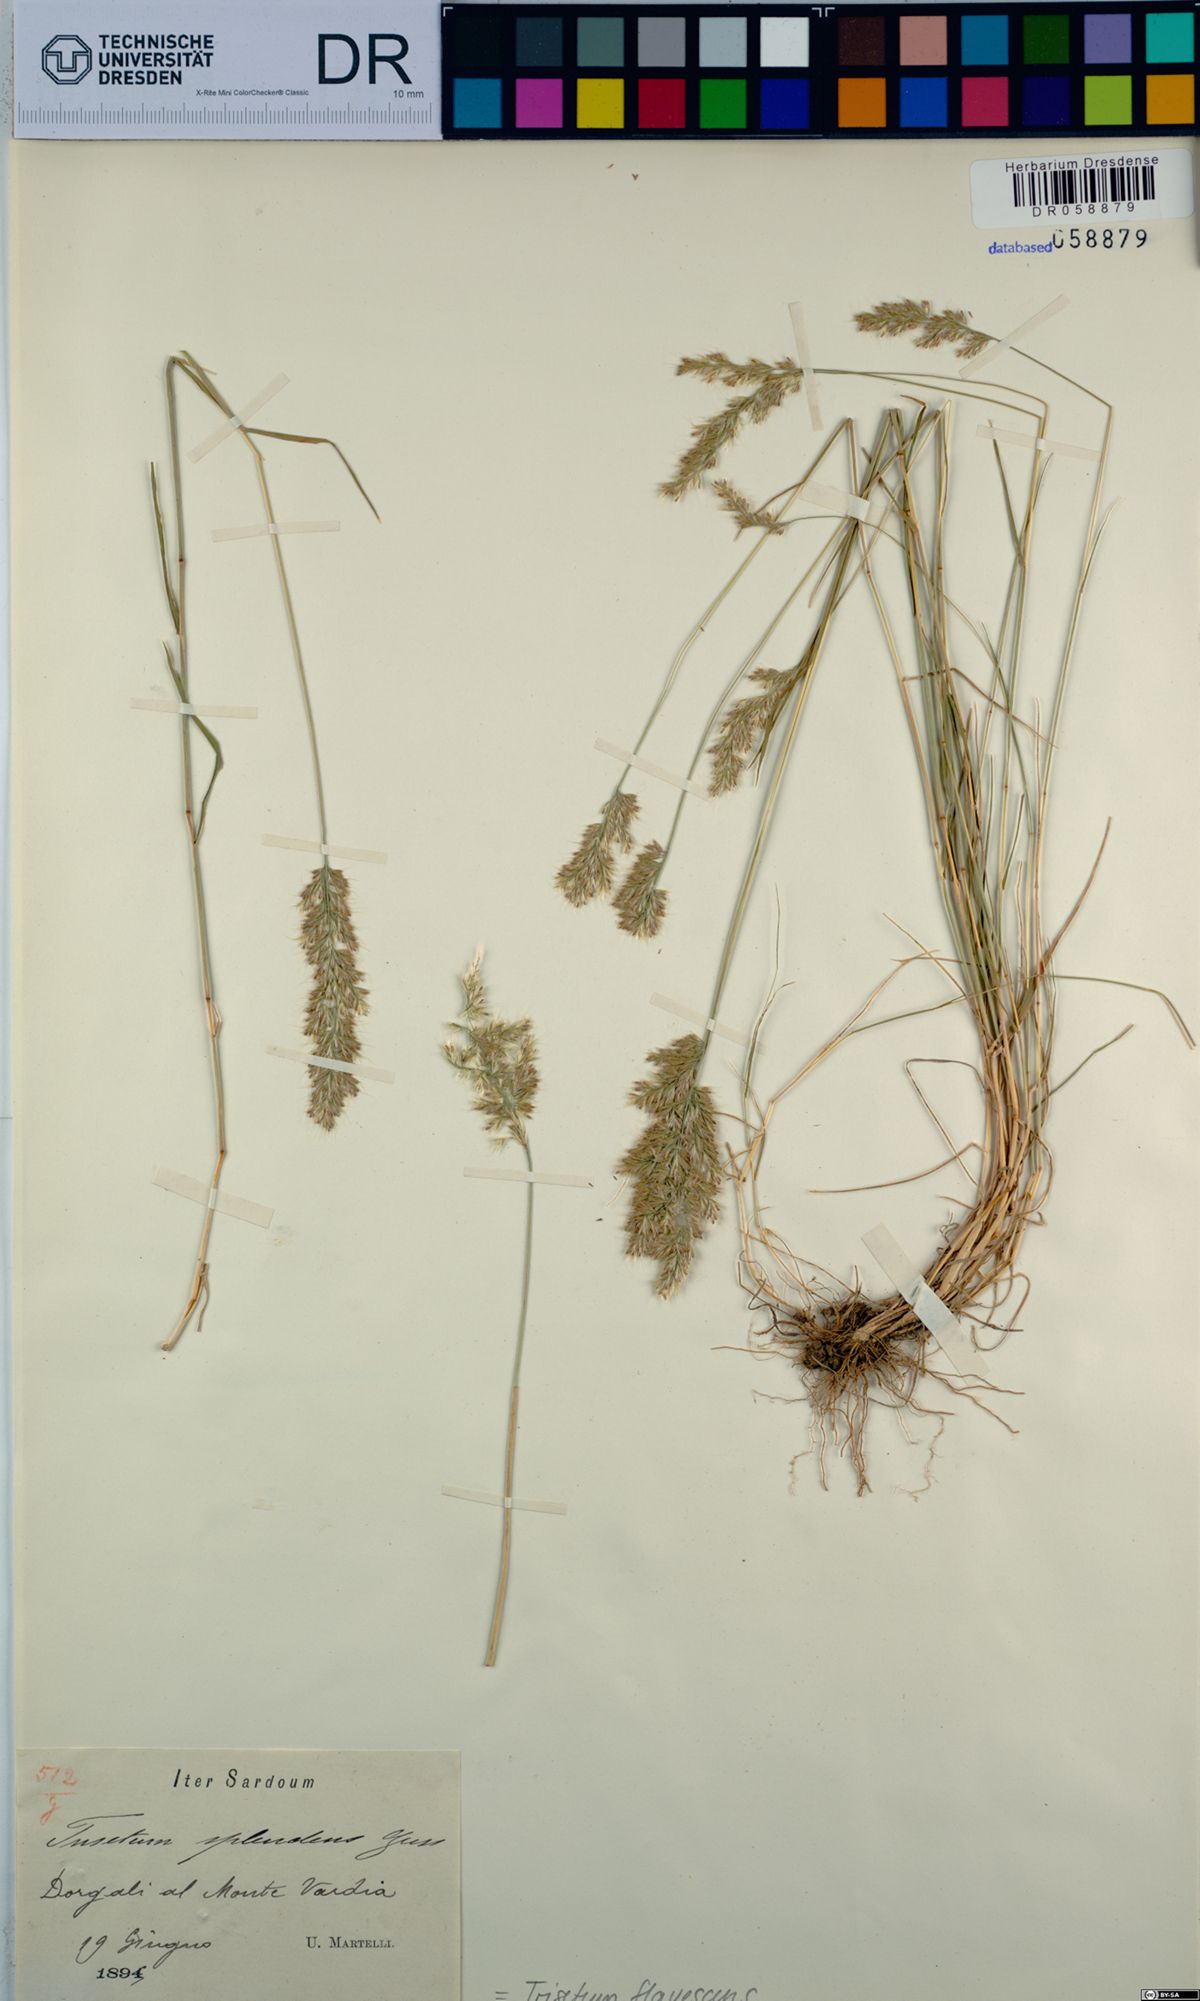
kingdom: Plantae
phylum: Tracheophyta
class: Liliopsida
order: Poales
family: Poaceae
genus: Trisetum
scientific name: Trisetum flavescens
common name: Yellow oat-grass
